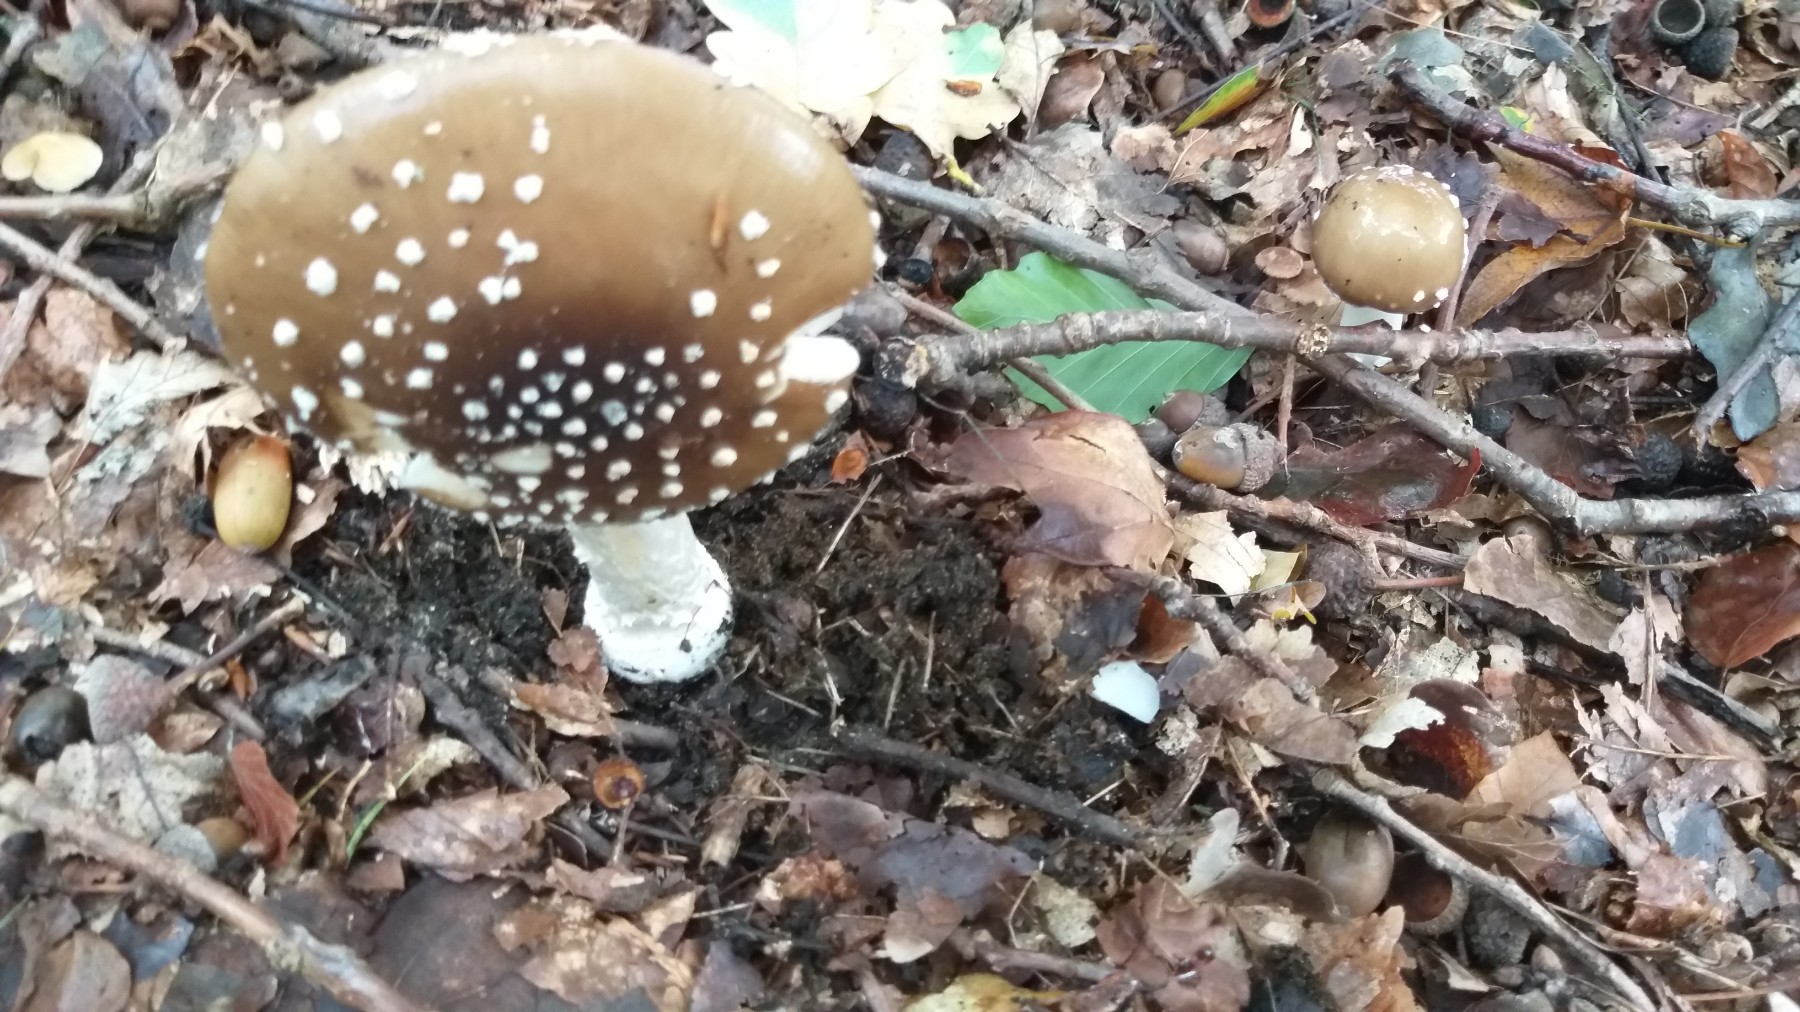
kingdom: Fungi
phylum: Basidiomycota
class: Agaricomycetes
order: Agaricales
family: Amanitaceae
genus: Amanita
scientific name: Amanita pantherina
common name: panter-fluesvamp
